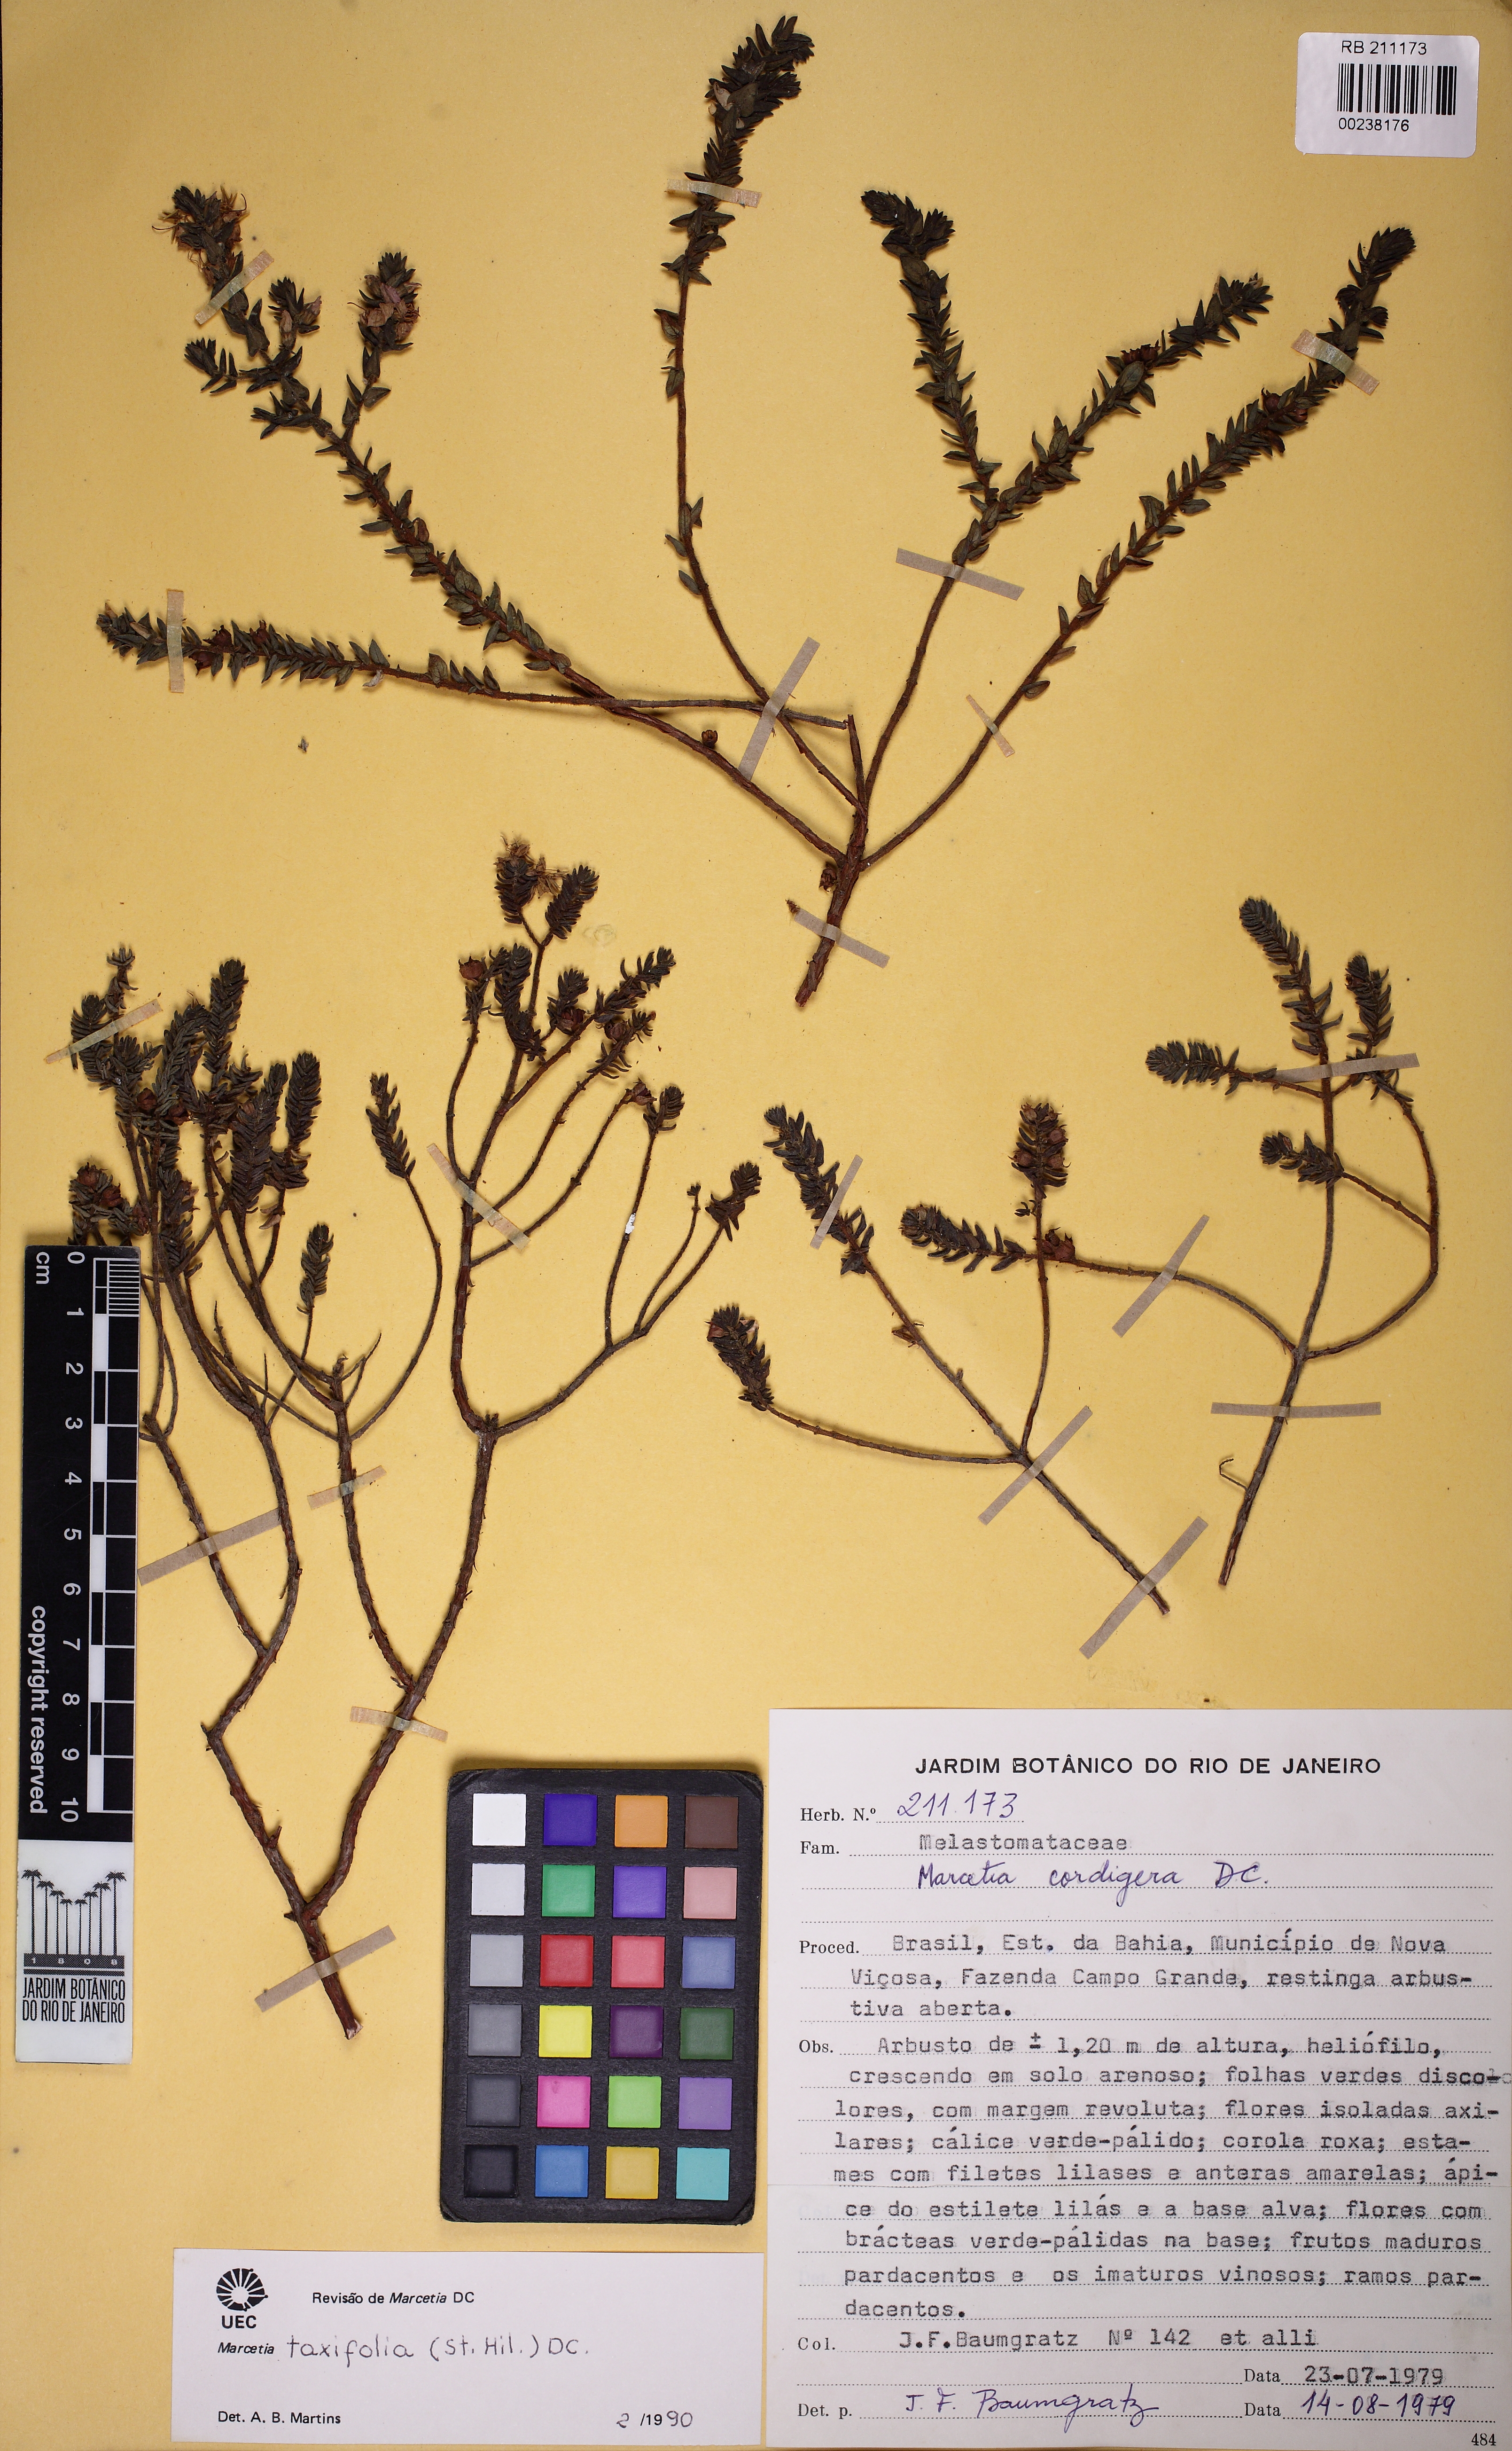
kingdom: Plantae
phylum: Tracheophyta
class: Magnoliopsida
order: Myrtales
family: Melastomataceae
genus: Marcetia
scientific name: Marcetia taxifolia
